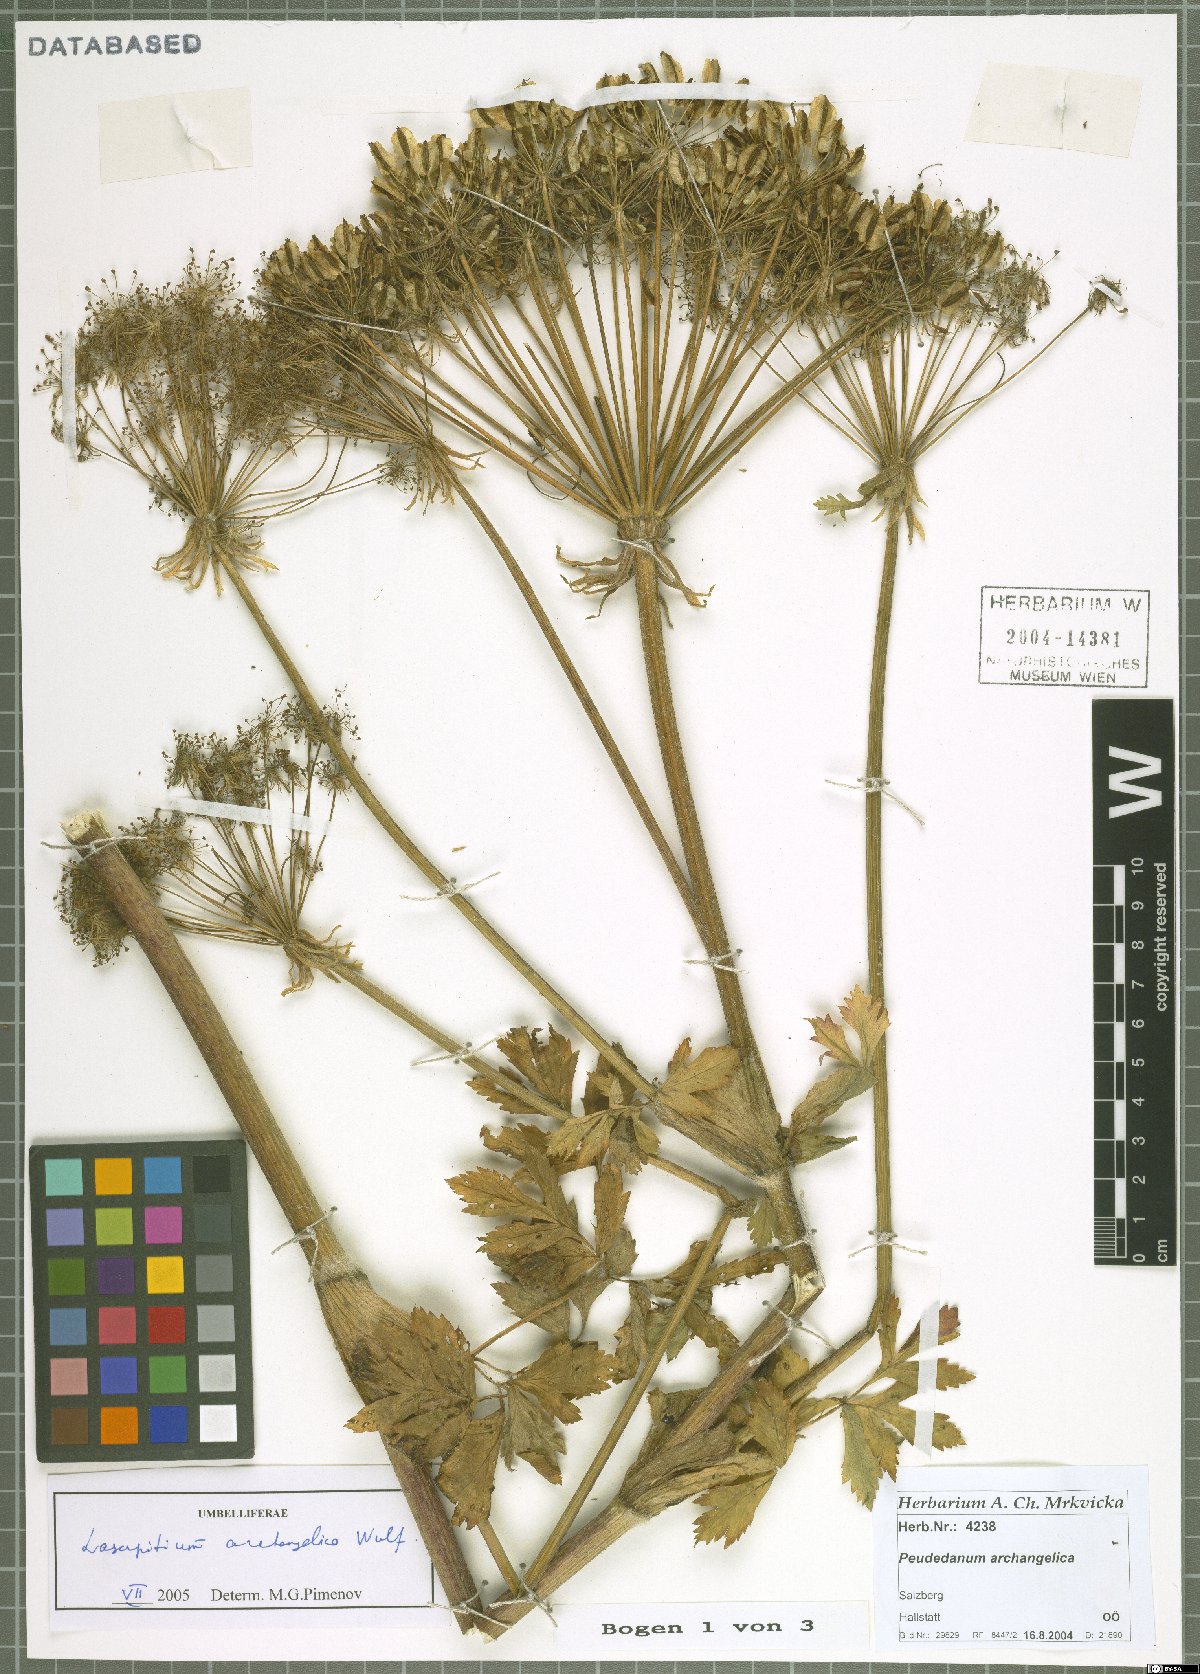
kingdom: Plantae
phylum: Tracheophyta
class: Magnoliopsida
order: Apiales
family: Apiaceae
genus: Laser
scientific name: Laser archangelica
